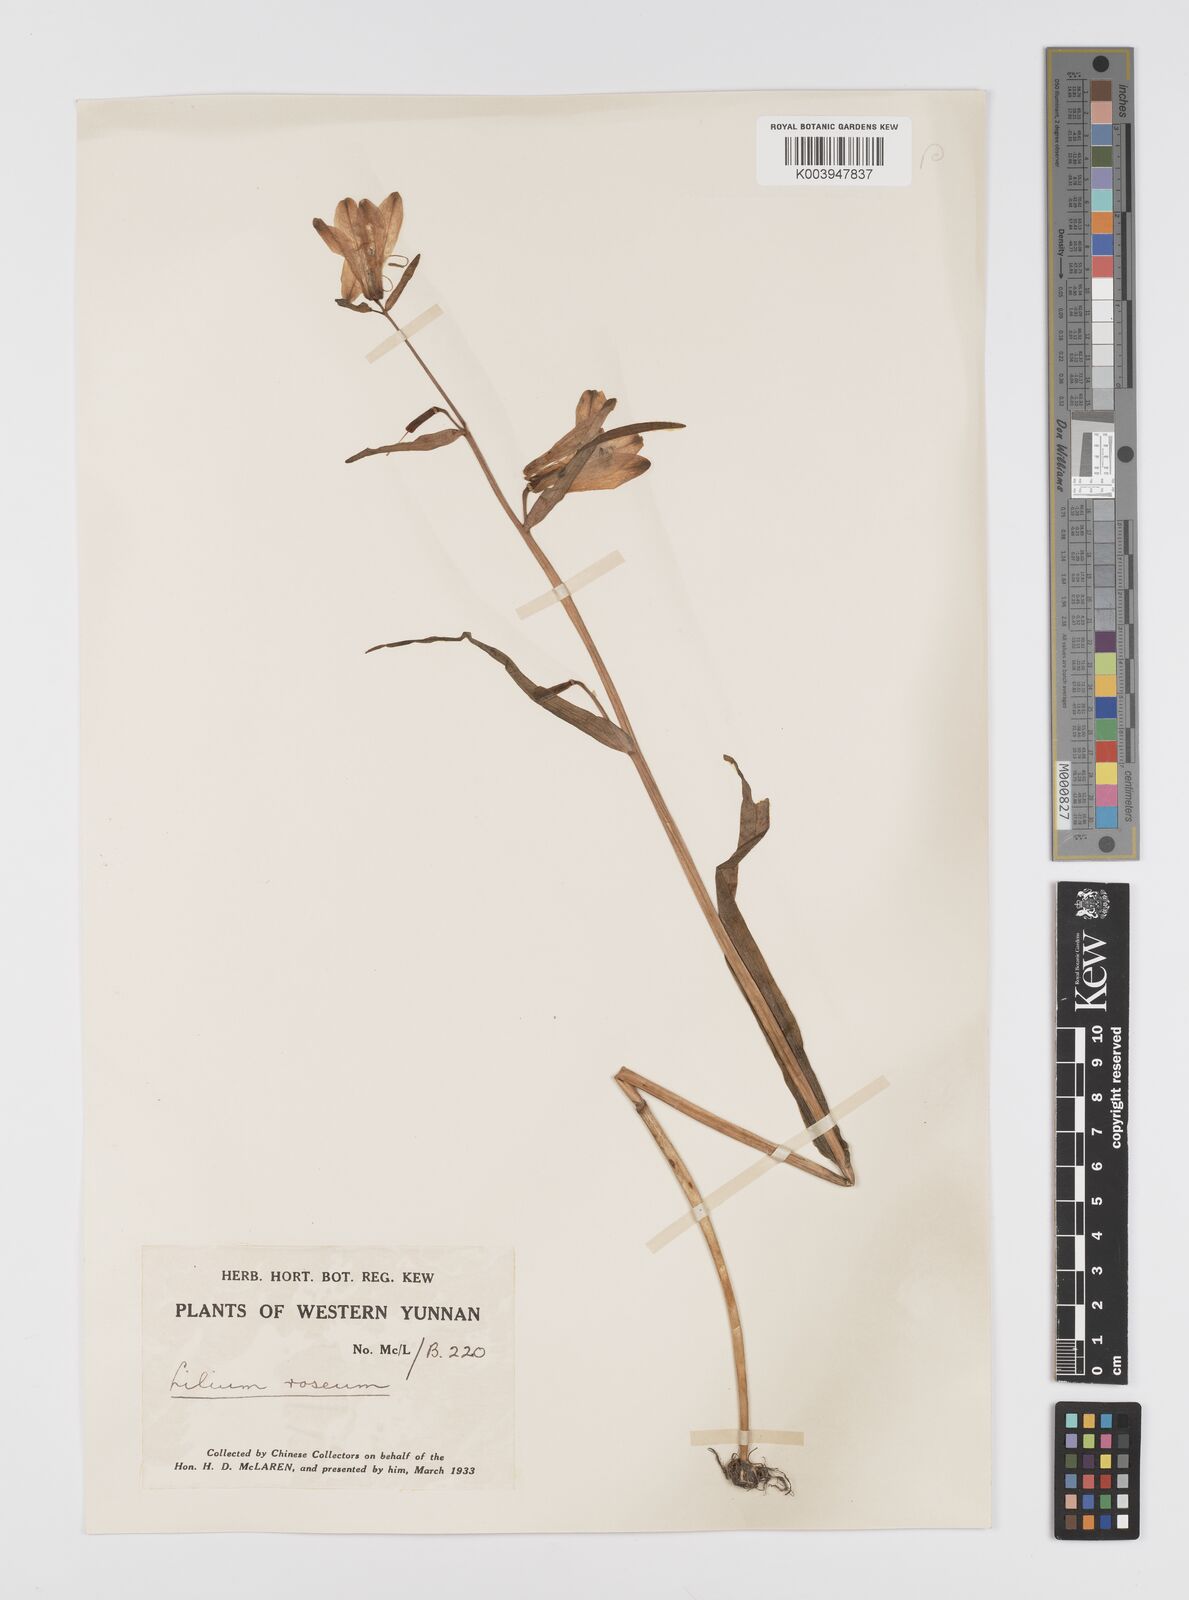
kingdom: Plantae
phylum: Tracheophyta
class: Liliopsida
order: Liliales
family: Liliaceae
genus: Notholirion
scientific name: Notholirion bulbuliferum
